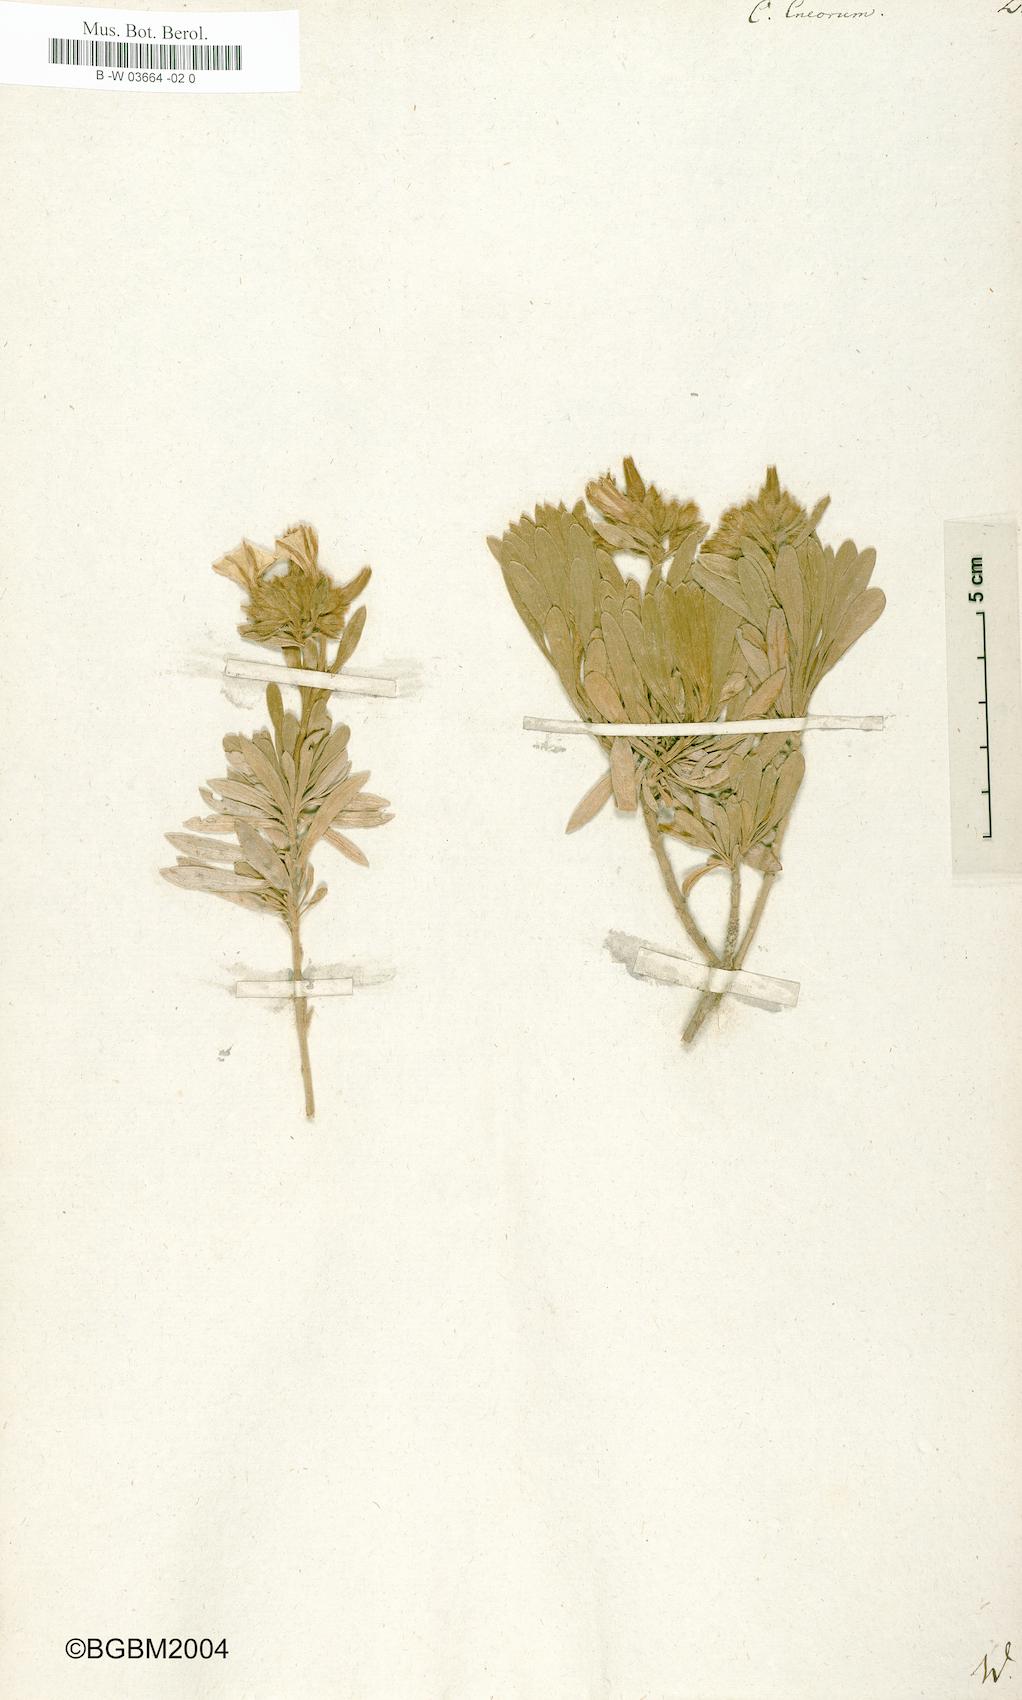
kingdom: Plantae
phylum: Tracheophyta
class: Magnoliopsida
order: Solanales
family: Convolvulaceae
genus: Convolvulus
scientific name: Convolvulus cneorum
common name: Silverbush
